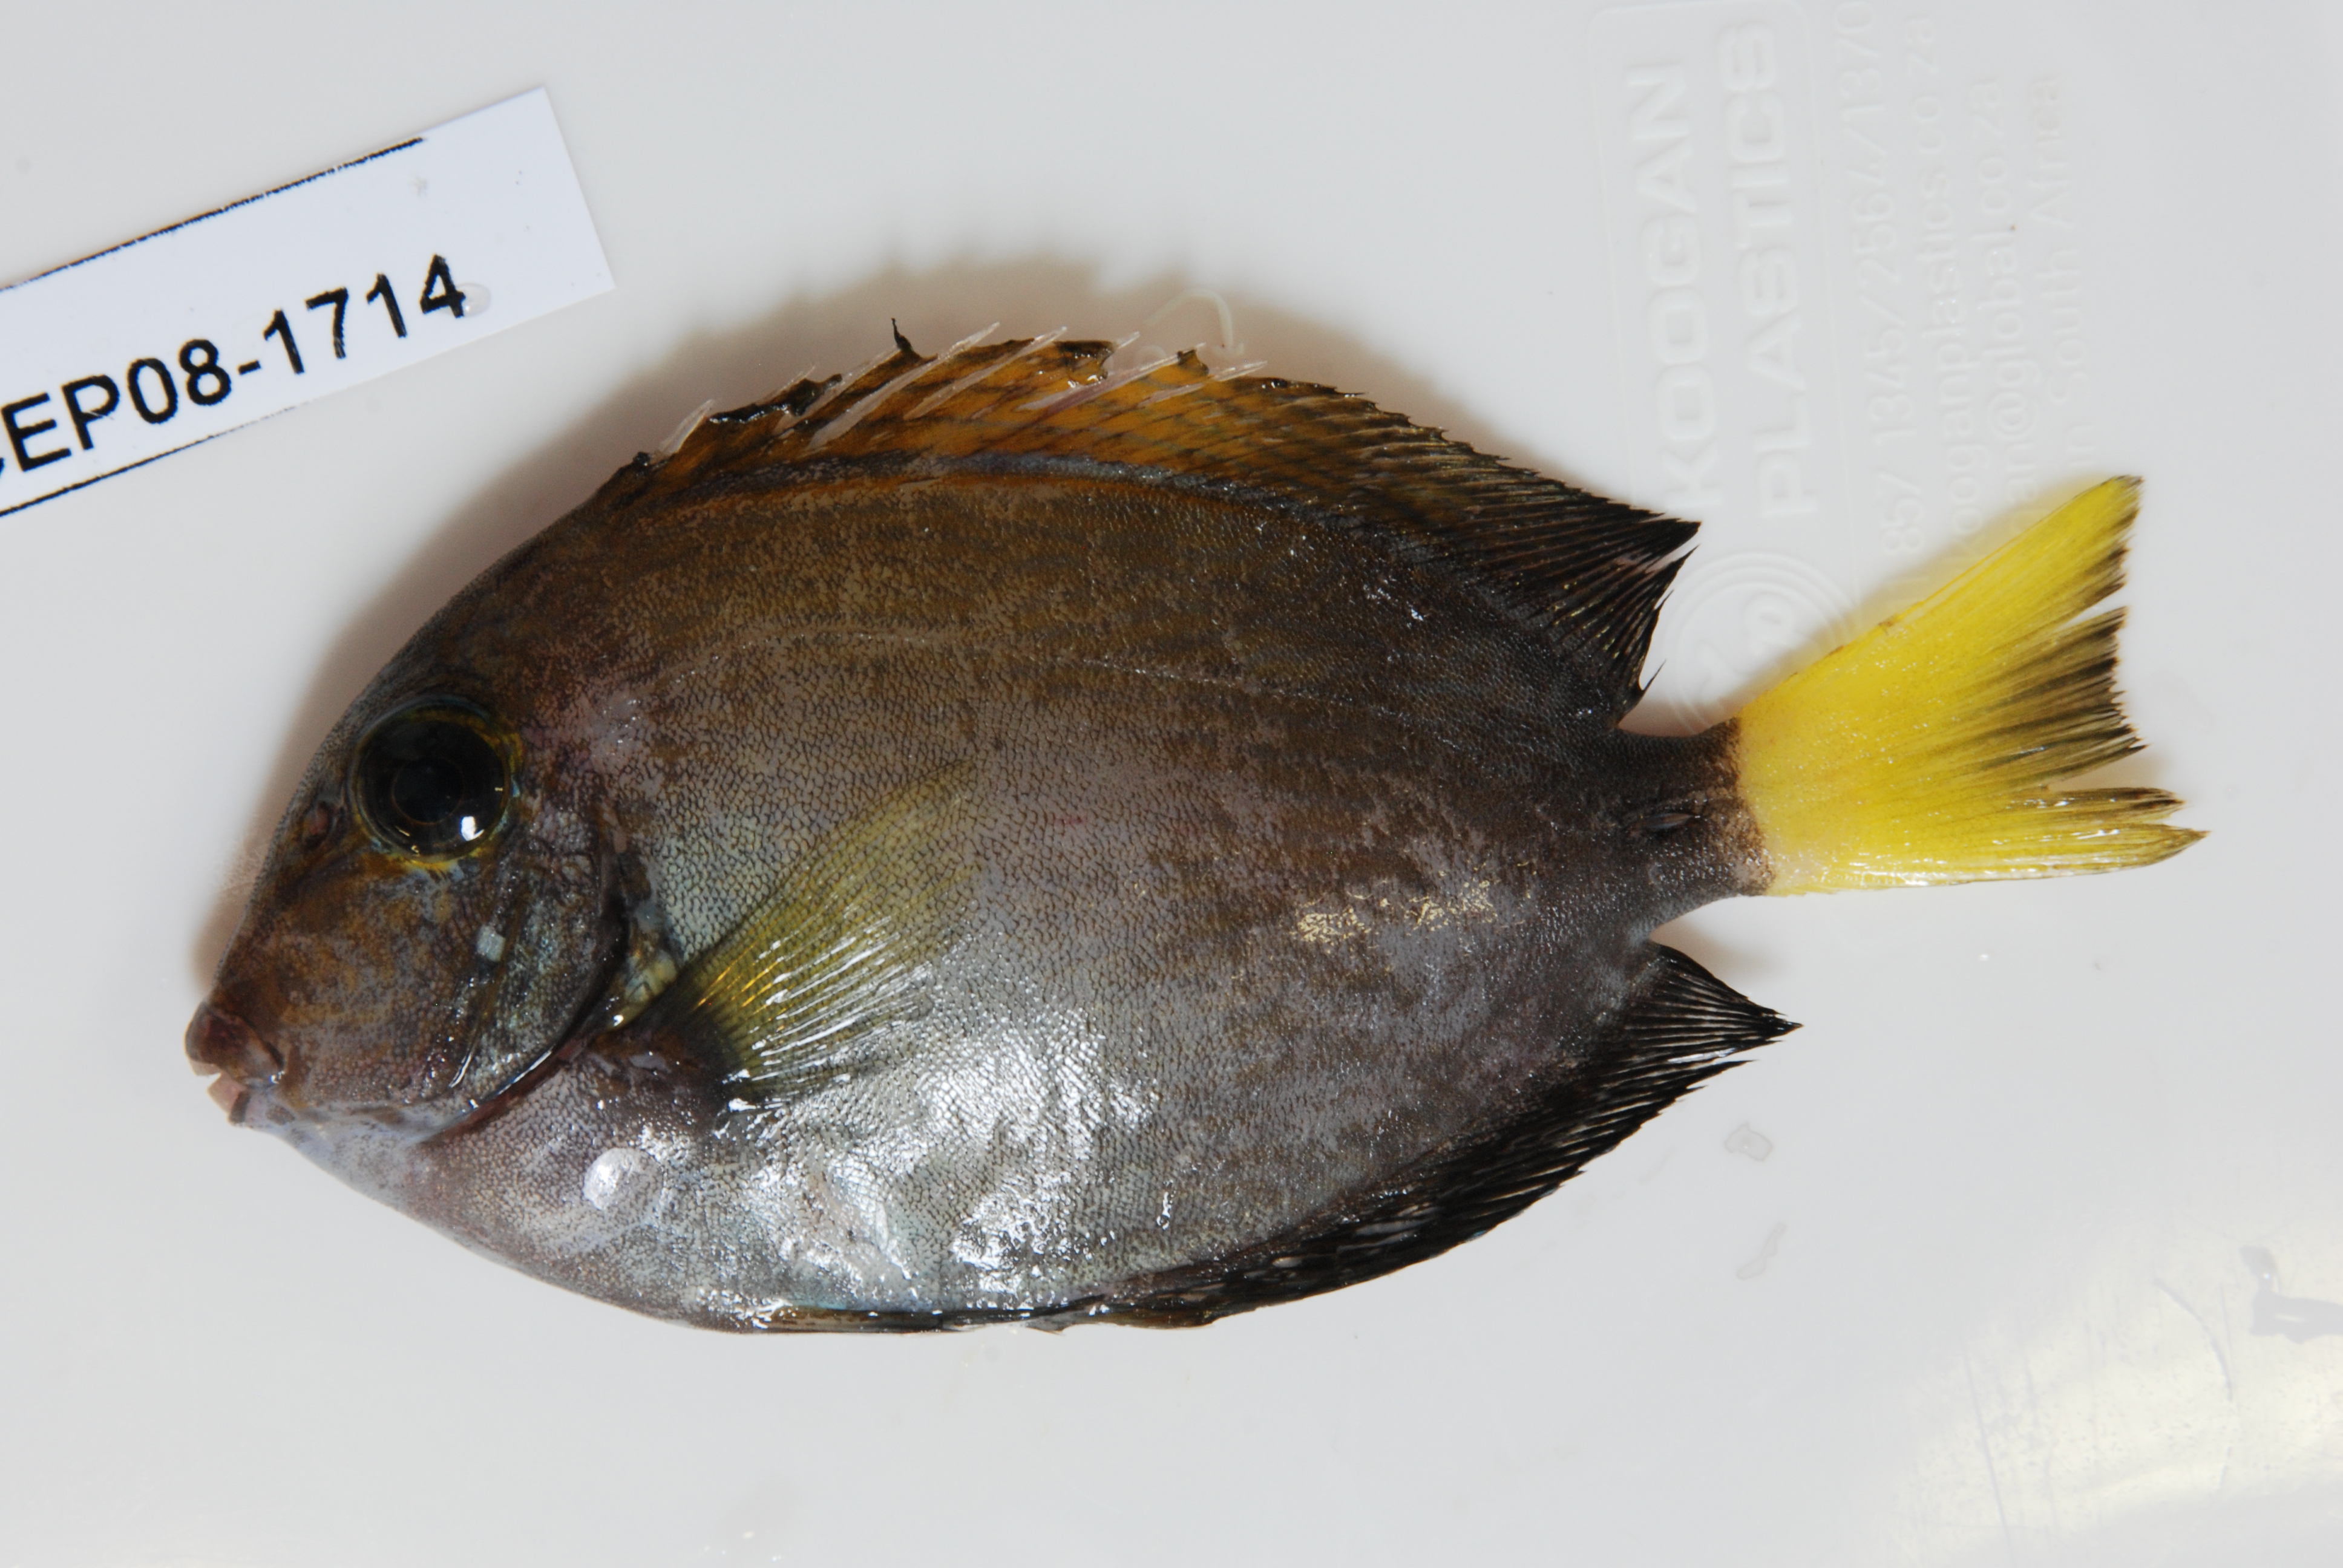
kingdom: Animalia
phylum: Chordata
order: Perciformes
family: Acanthuridae
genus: Acanthurus
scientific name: Acanthurus
